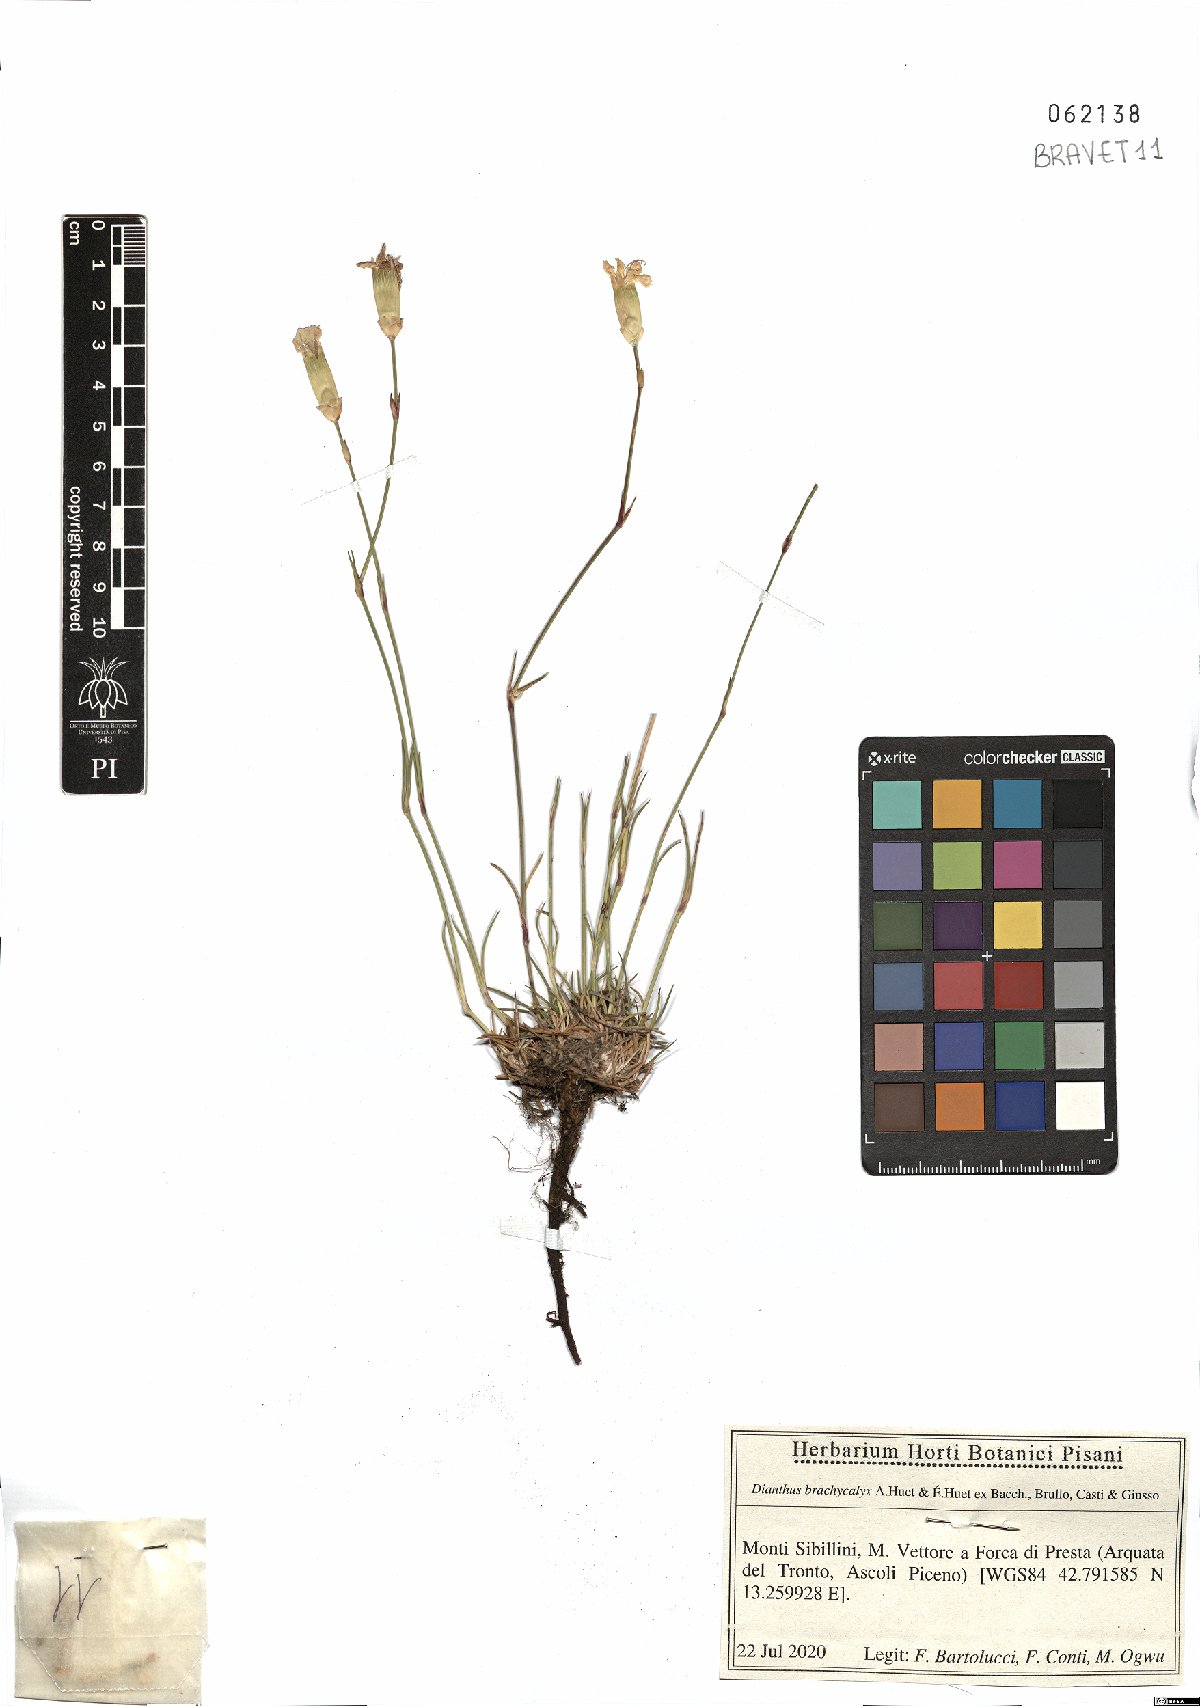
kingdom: Plantae
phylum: Tracheophyta
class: Magnoliopsida
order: Caryophyllales
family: Caryophyllaceae
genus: Dianthus
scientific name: Dianthus brachycalyx
